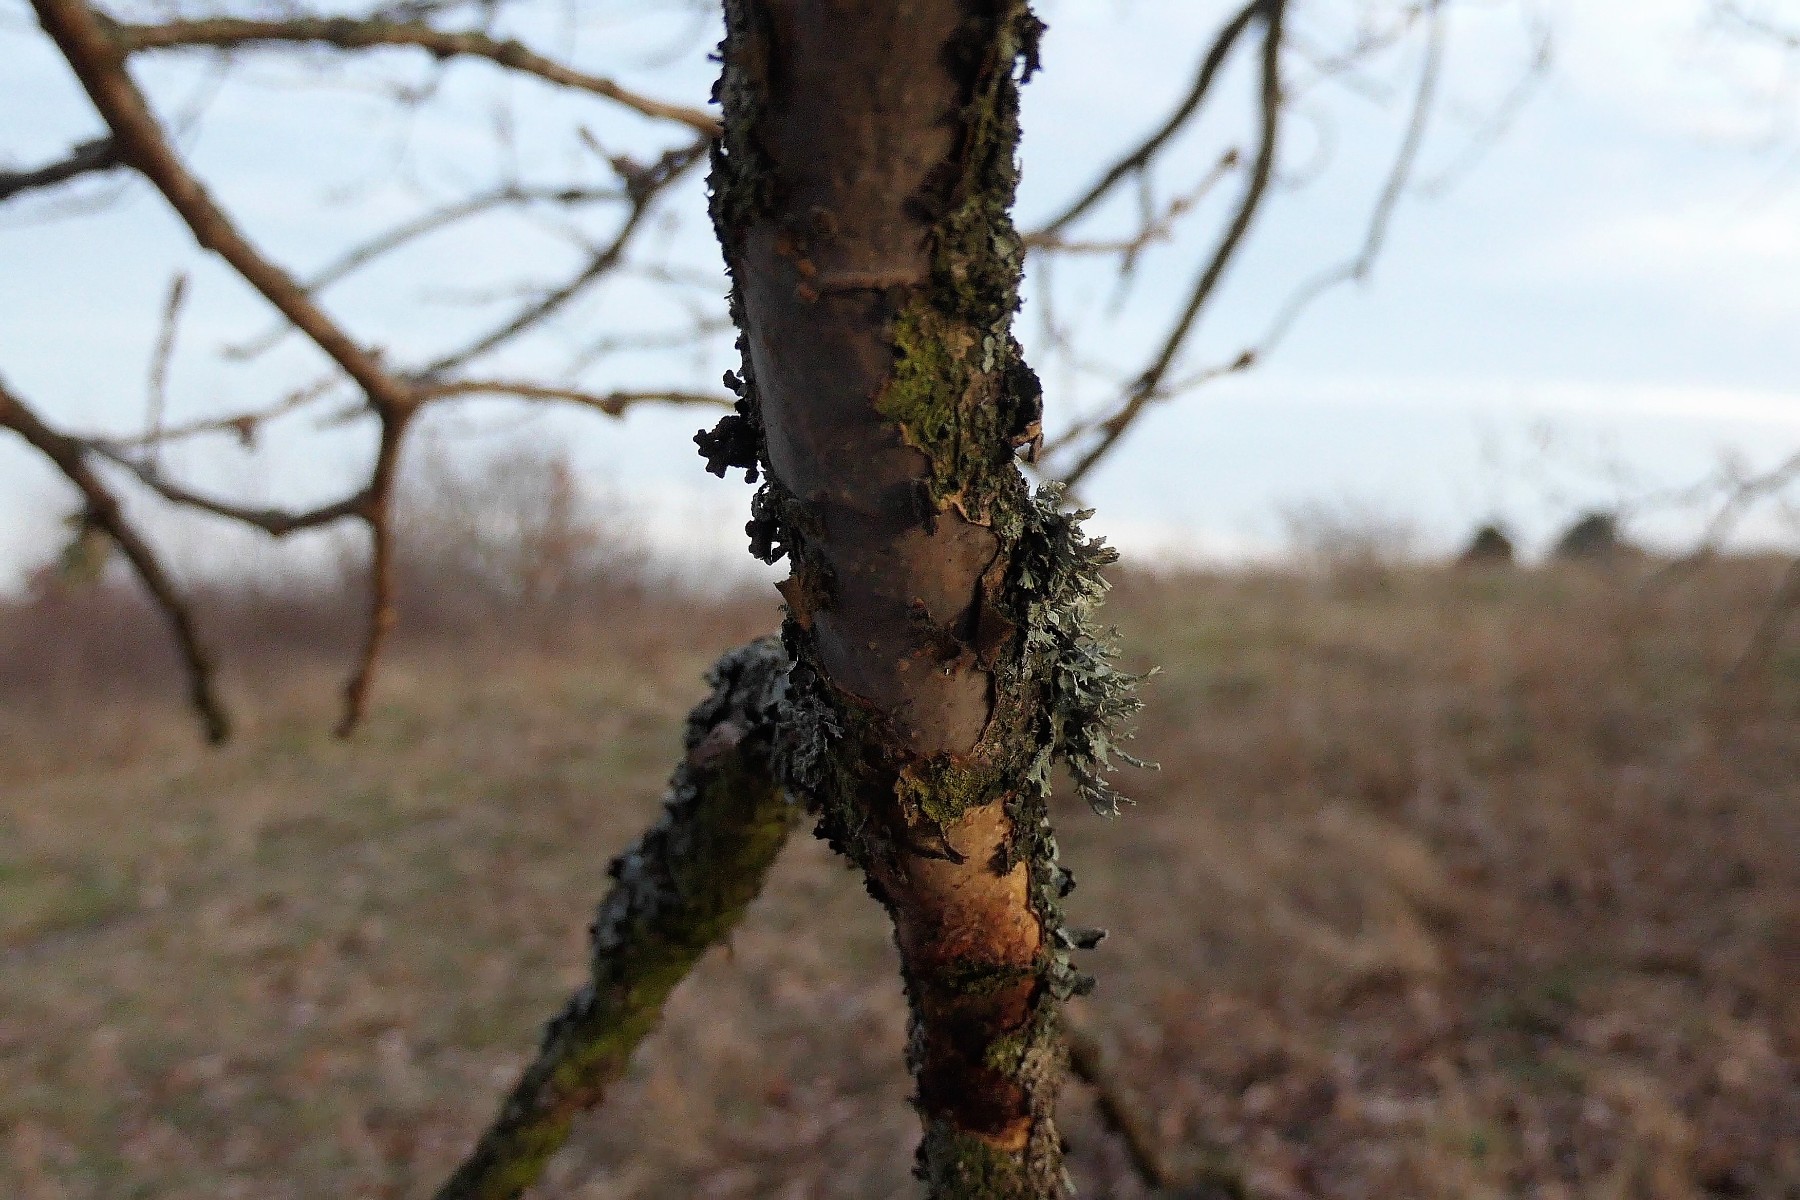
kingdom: Fungi
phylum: Basidiomycota
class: Agaricomycetes
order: Corticiales
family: Vuilleminiaceae
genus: Vuilleminia
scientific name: Vuilleminia comedens
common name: almindelig barksprænger
